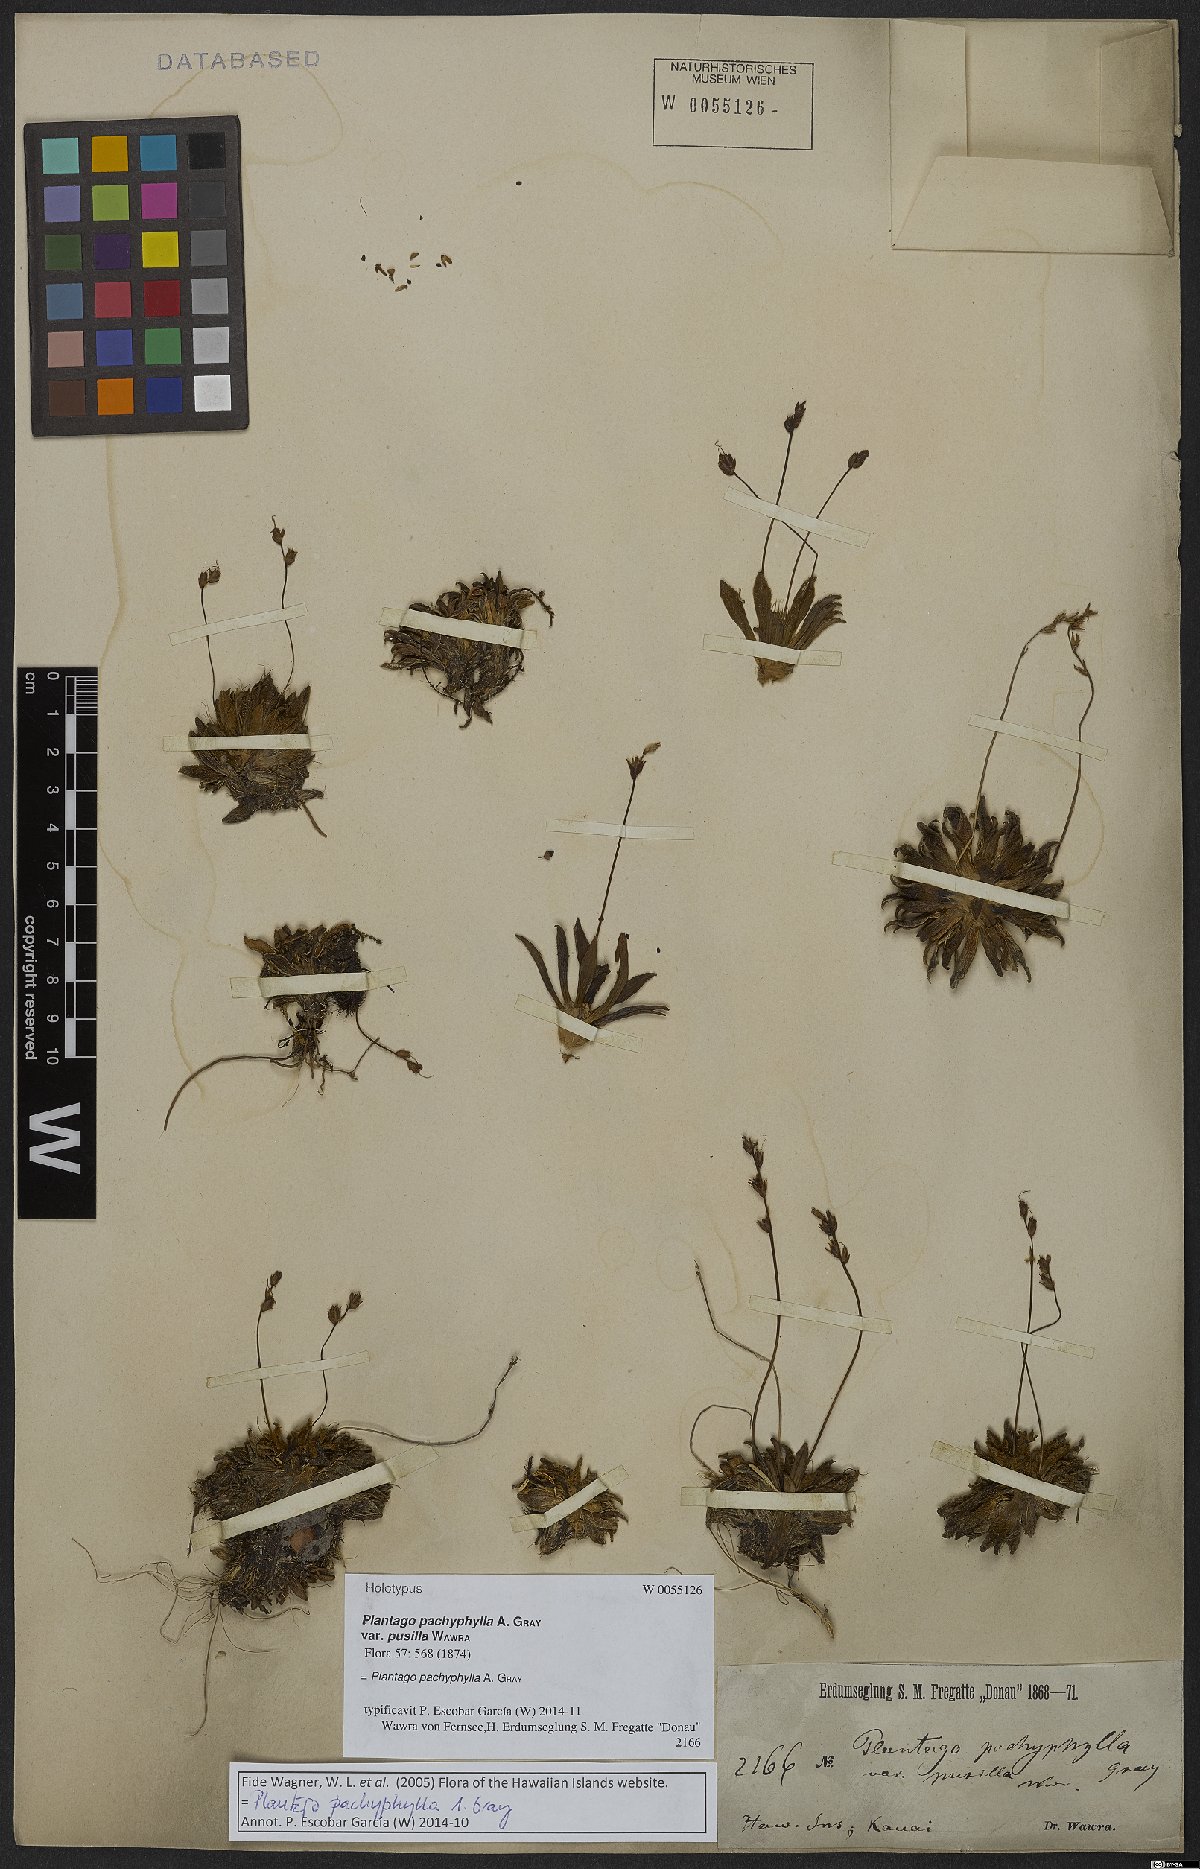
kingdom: Plantae
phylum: Tracheophyta
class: Magnoliopsida
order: Lamiales
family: Plantaginaceae
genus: Plantago
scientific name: Plantago pachyphylla
